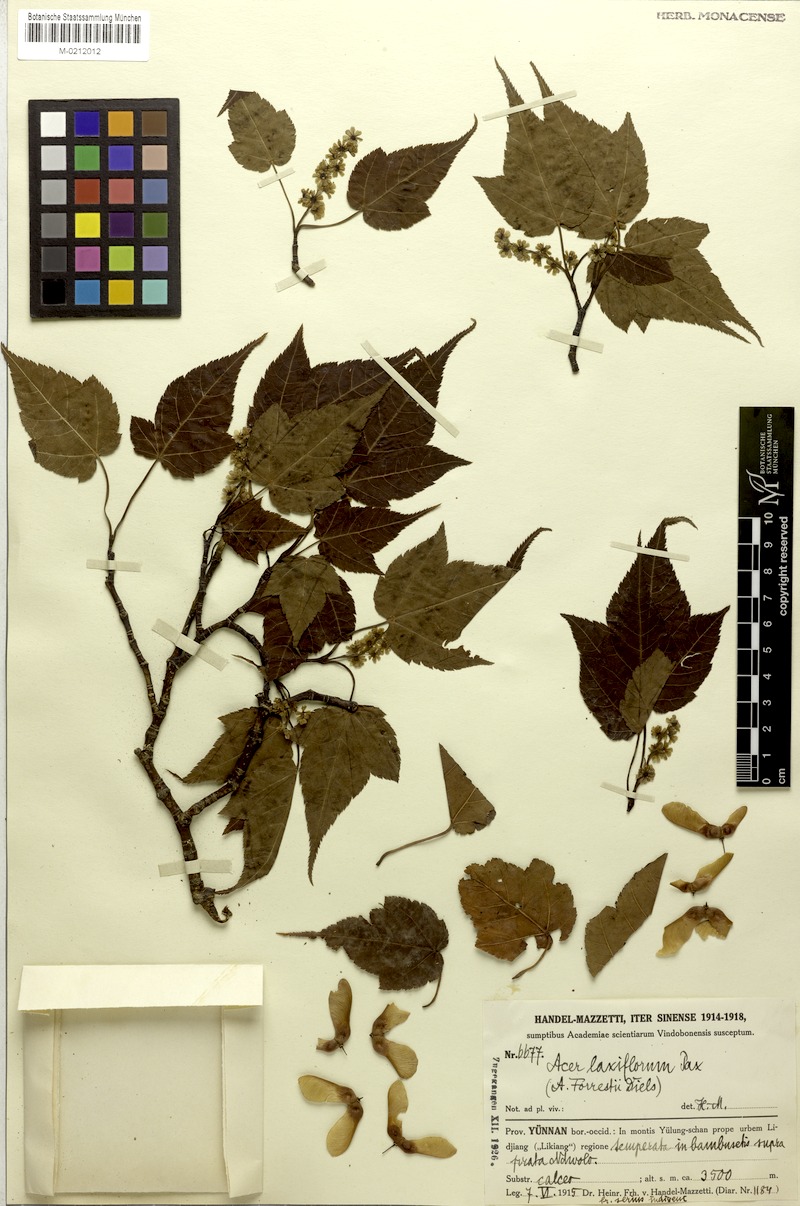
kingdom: Plantae
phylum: Tracheophyta
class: Magnoliopsida
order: Sapindales
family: Sapindaceae
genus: Acer
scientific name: Acer laxiflorum
